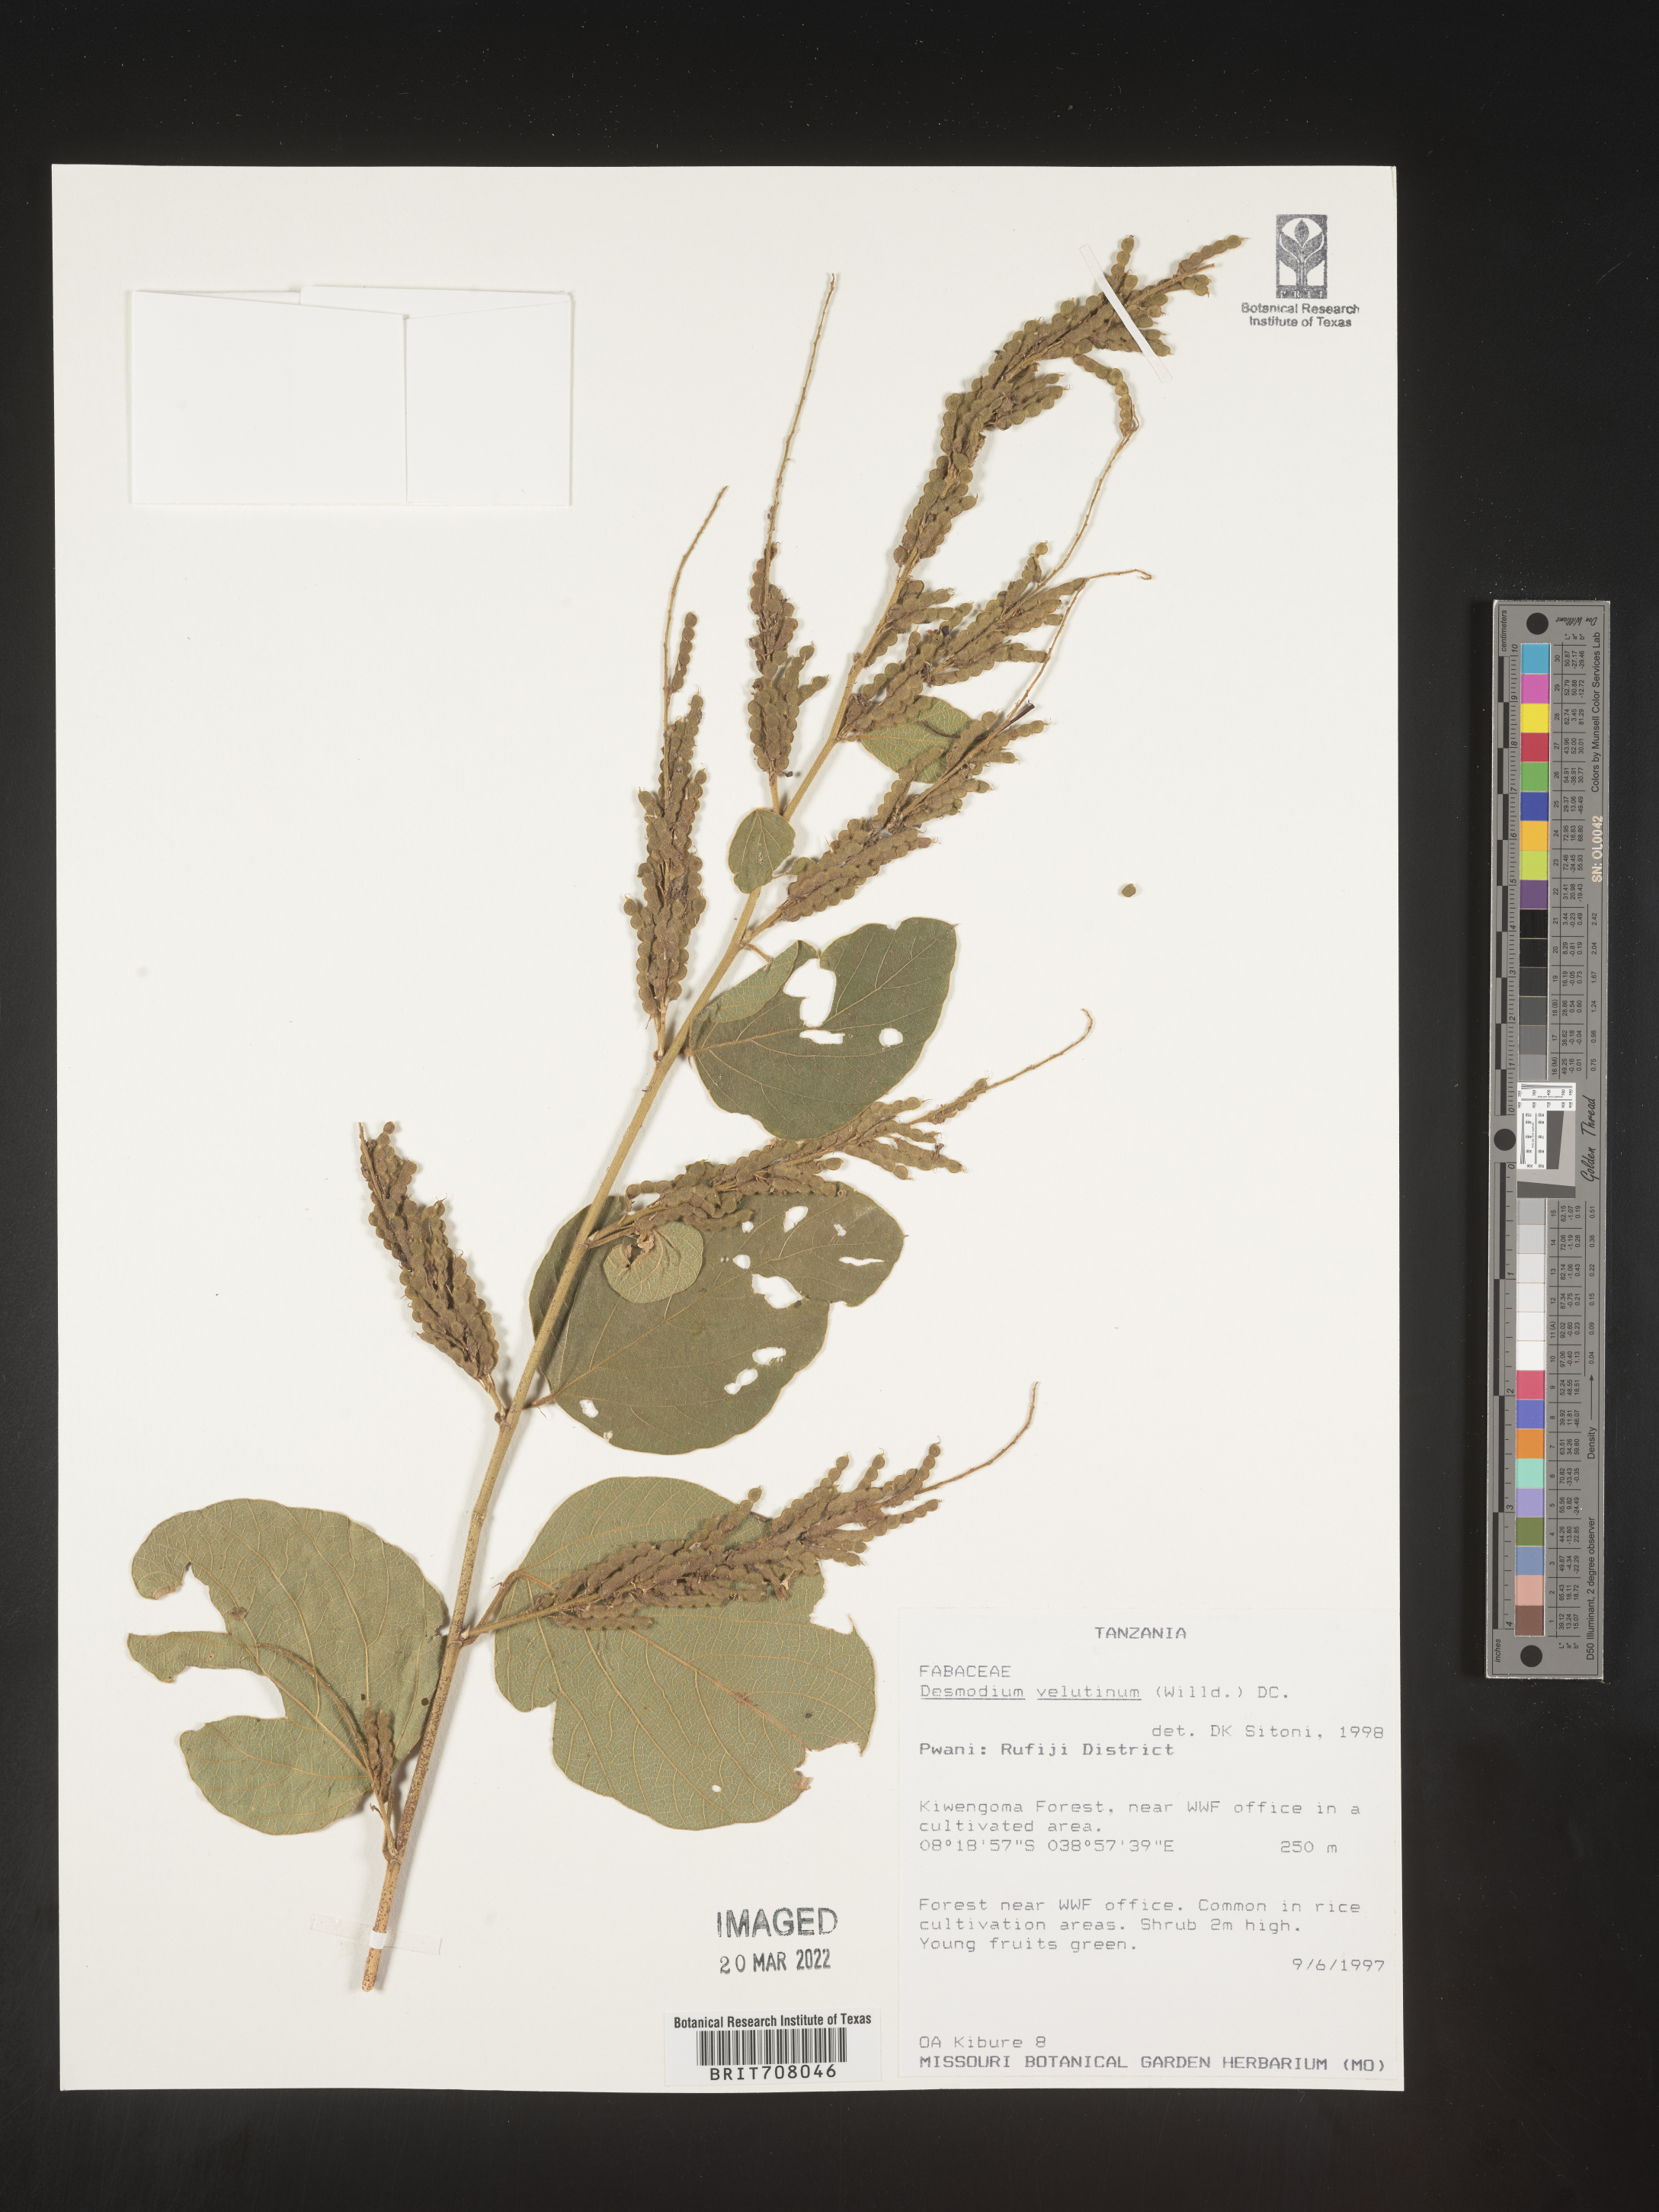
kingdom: Plantae
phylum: Tracheophyta
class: Magnoliopsida
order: Fabales
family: Fabaceae
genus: Desmodium
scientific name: Desmodium
